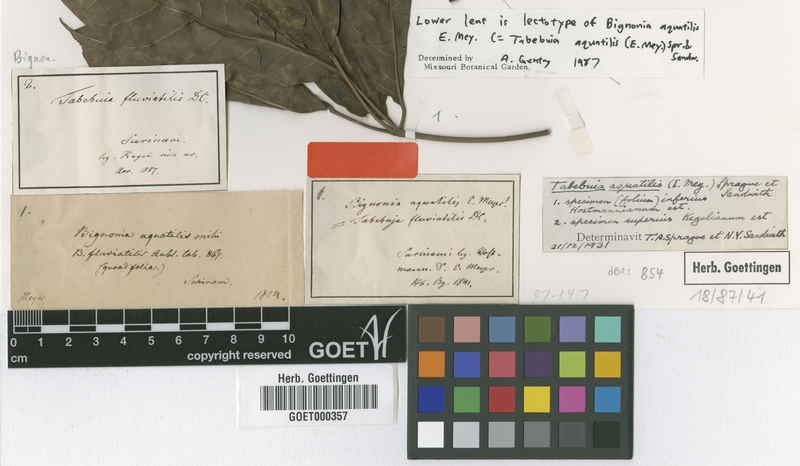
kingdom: Plantae
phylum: Tracheophyta
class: Magnoliopsida
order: Lamiales
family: Bignoniaceae
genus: Tabebuia
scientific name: Tabebuia fluviatilis
